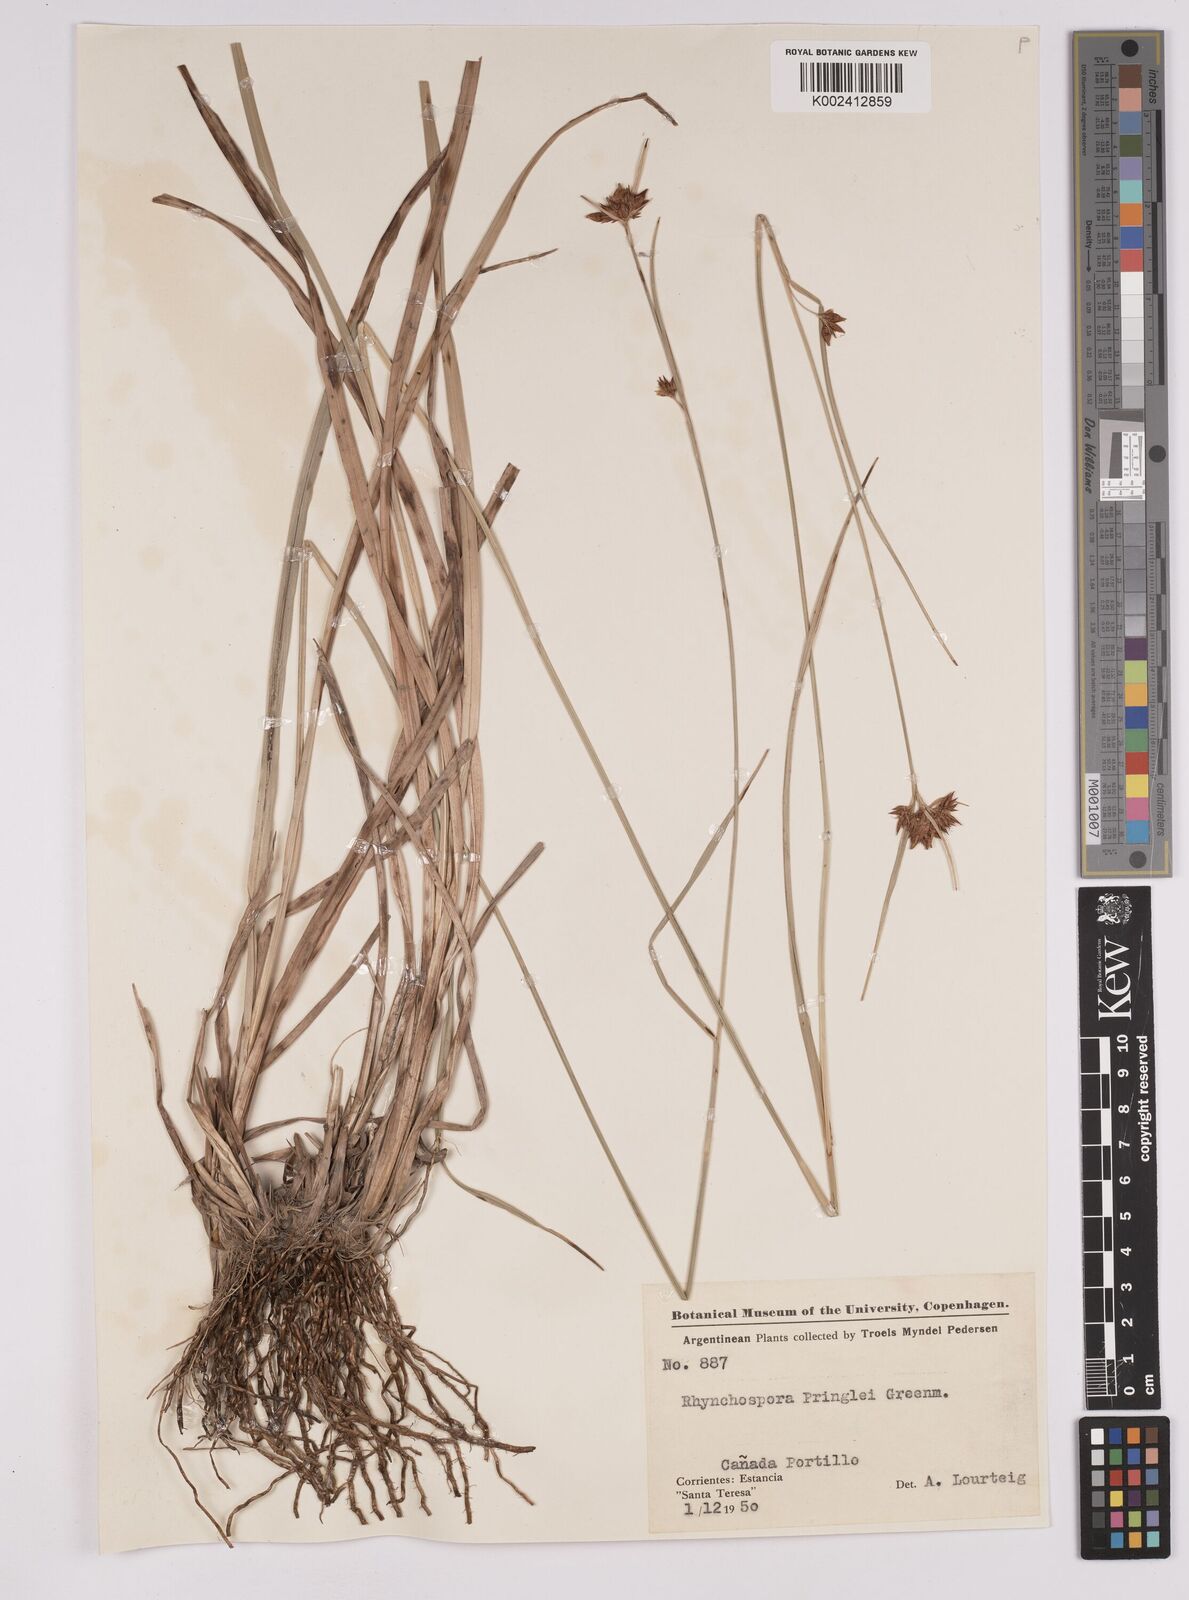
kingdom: Plantae
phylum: Tracheophyta
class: Liliopsida
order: Poales
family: Cyperaceae
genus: Rhynchospora
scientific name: Rhynchospora scutellata
